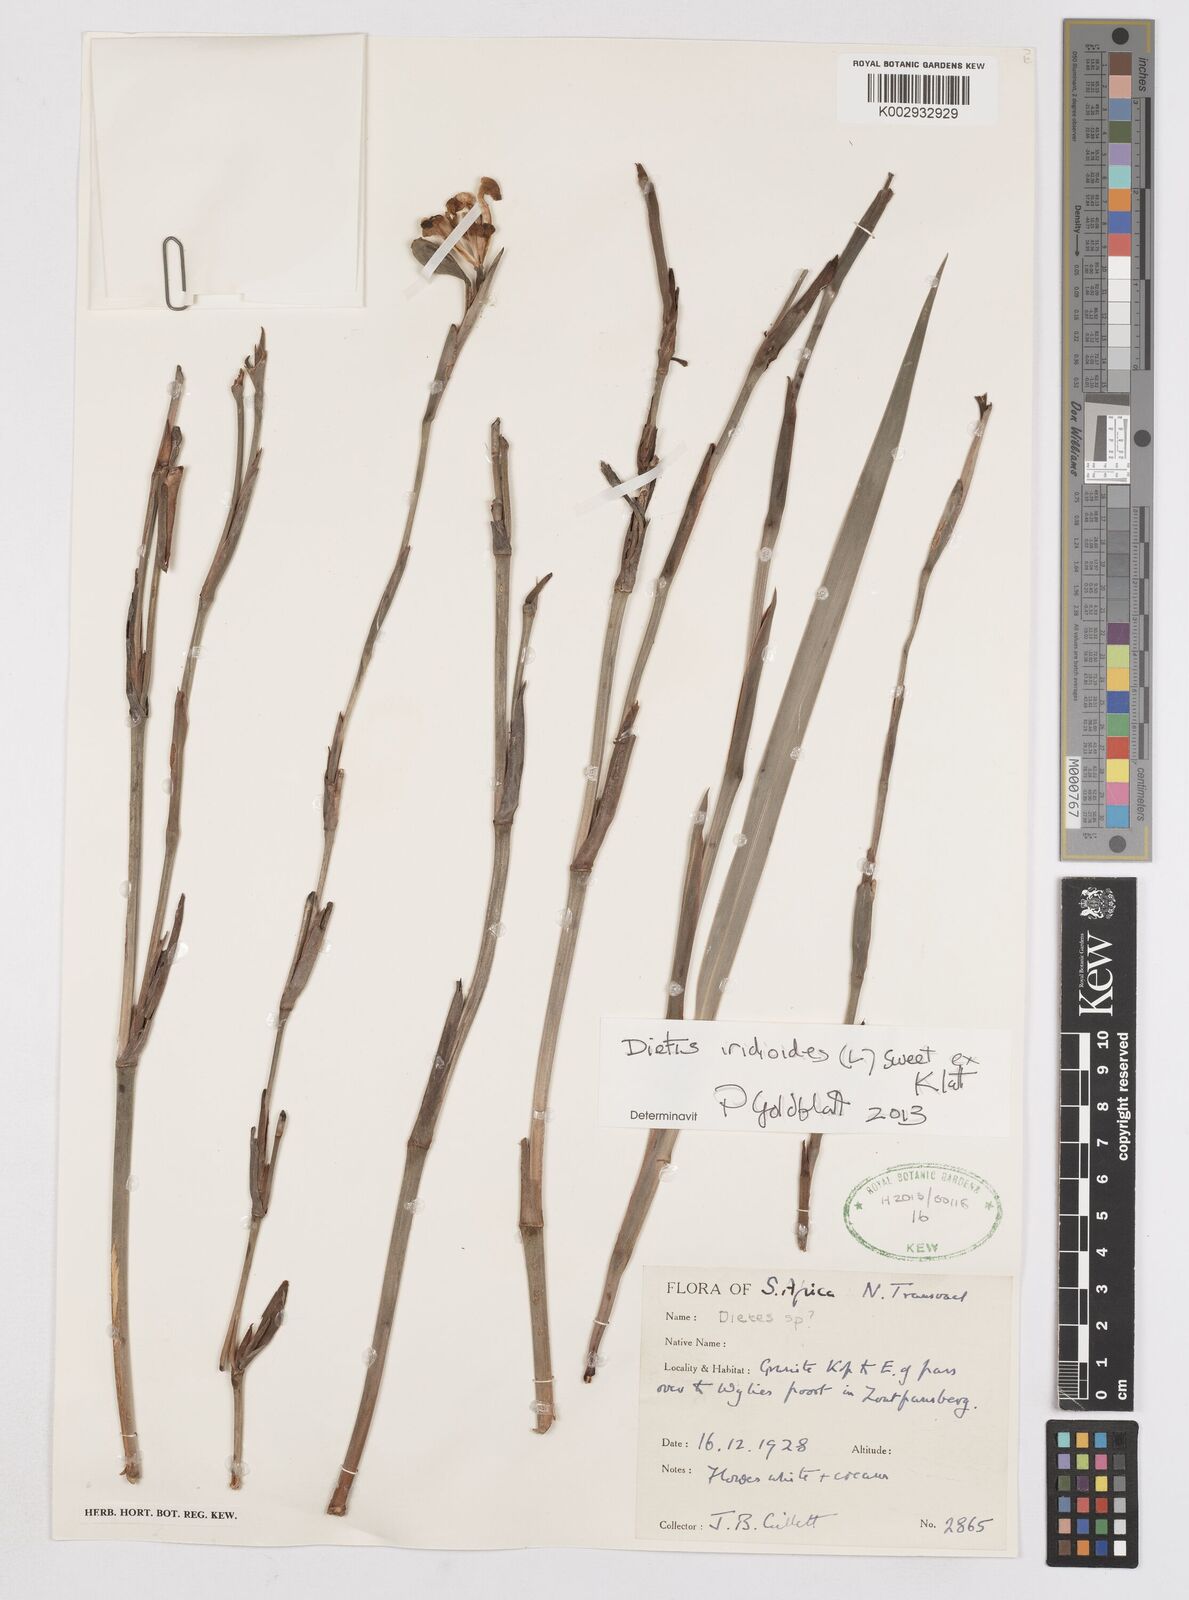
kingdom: Plantae
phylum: Tracheophyta
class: Liliopsida
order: Asparagales
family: Iridaceae
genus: Dietes
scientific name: Dietes iridioides
